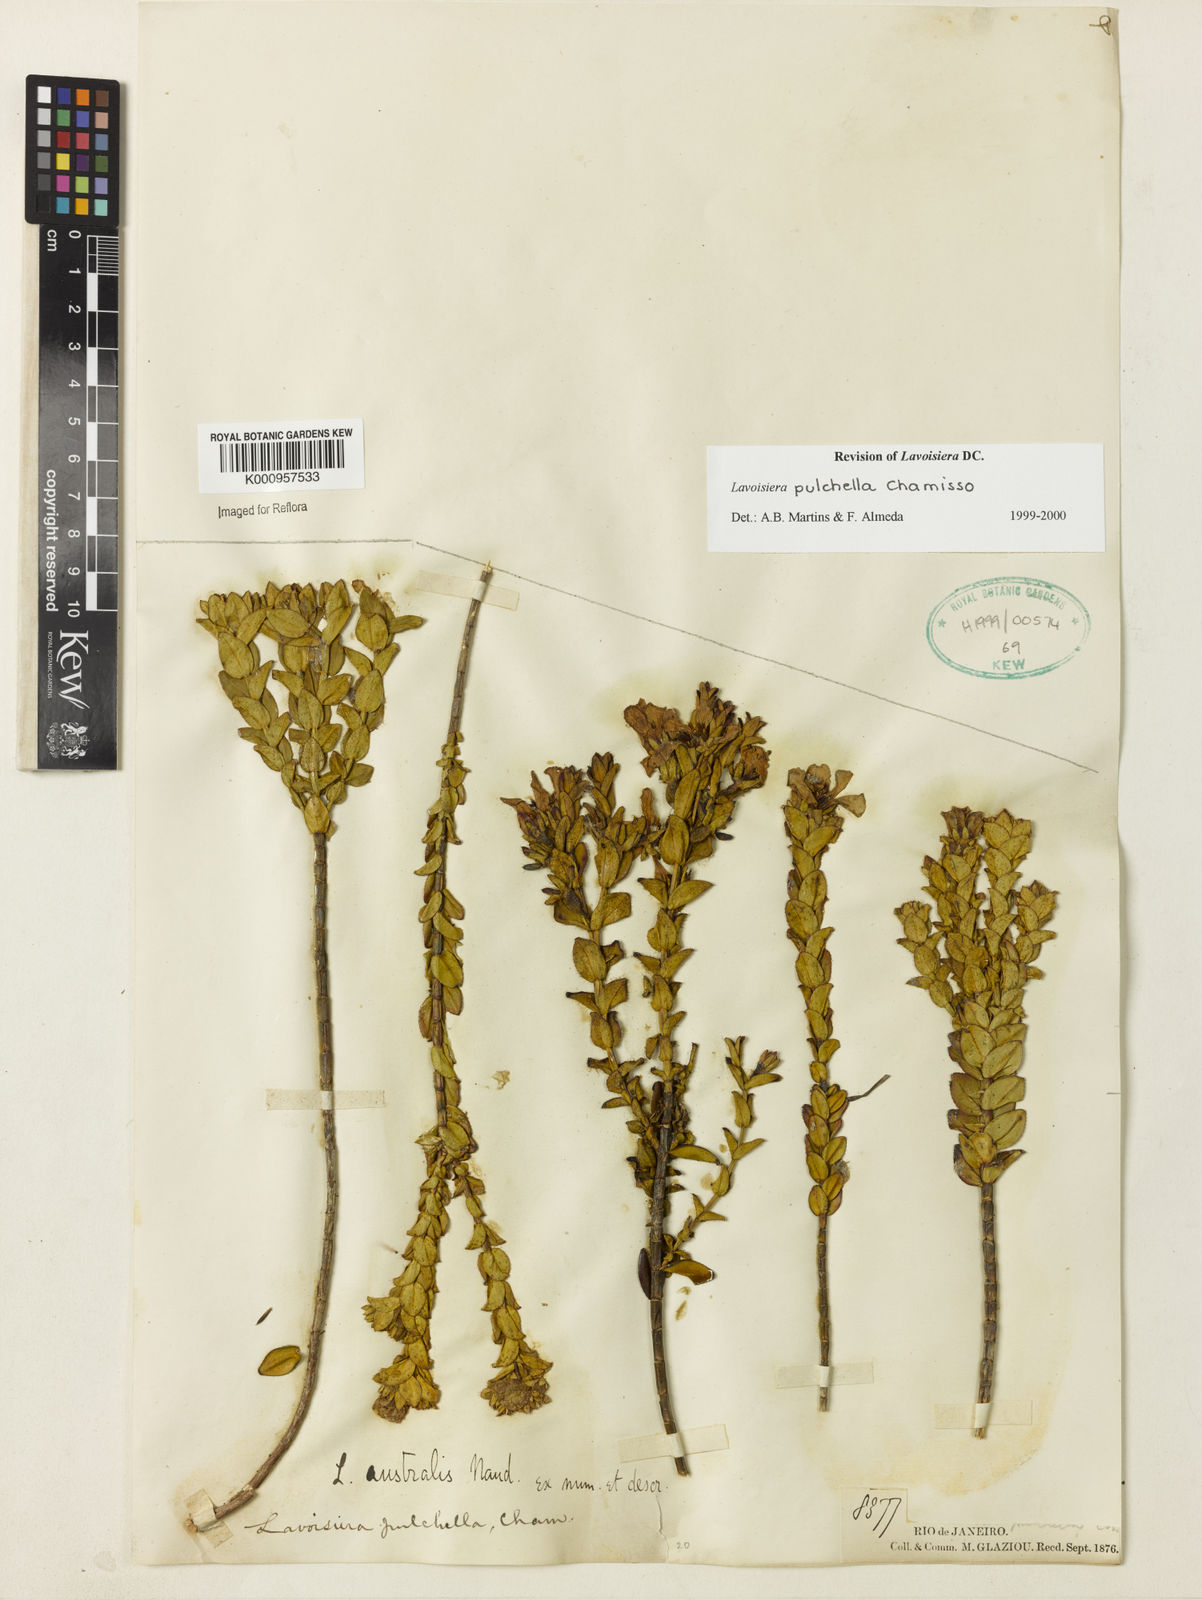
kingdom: Plantae
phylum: Tracheophyta
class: Magnoliopsida
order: Myrtales
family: Melastomataceae
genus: Microlicia
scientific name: Microlicia australis
